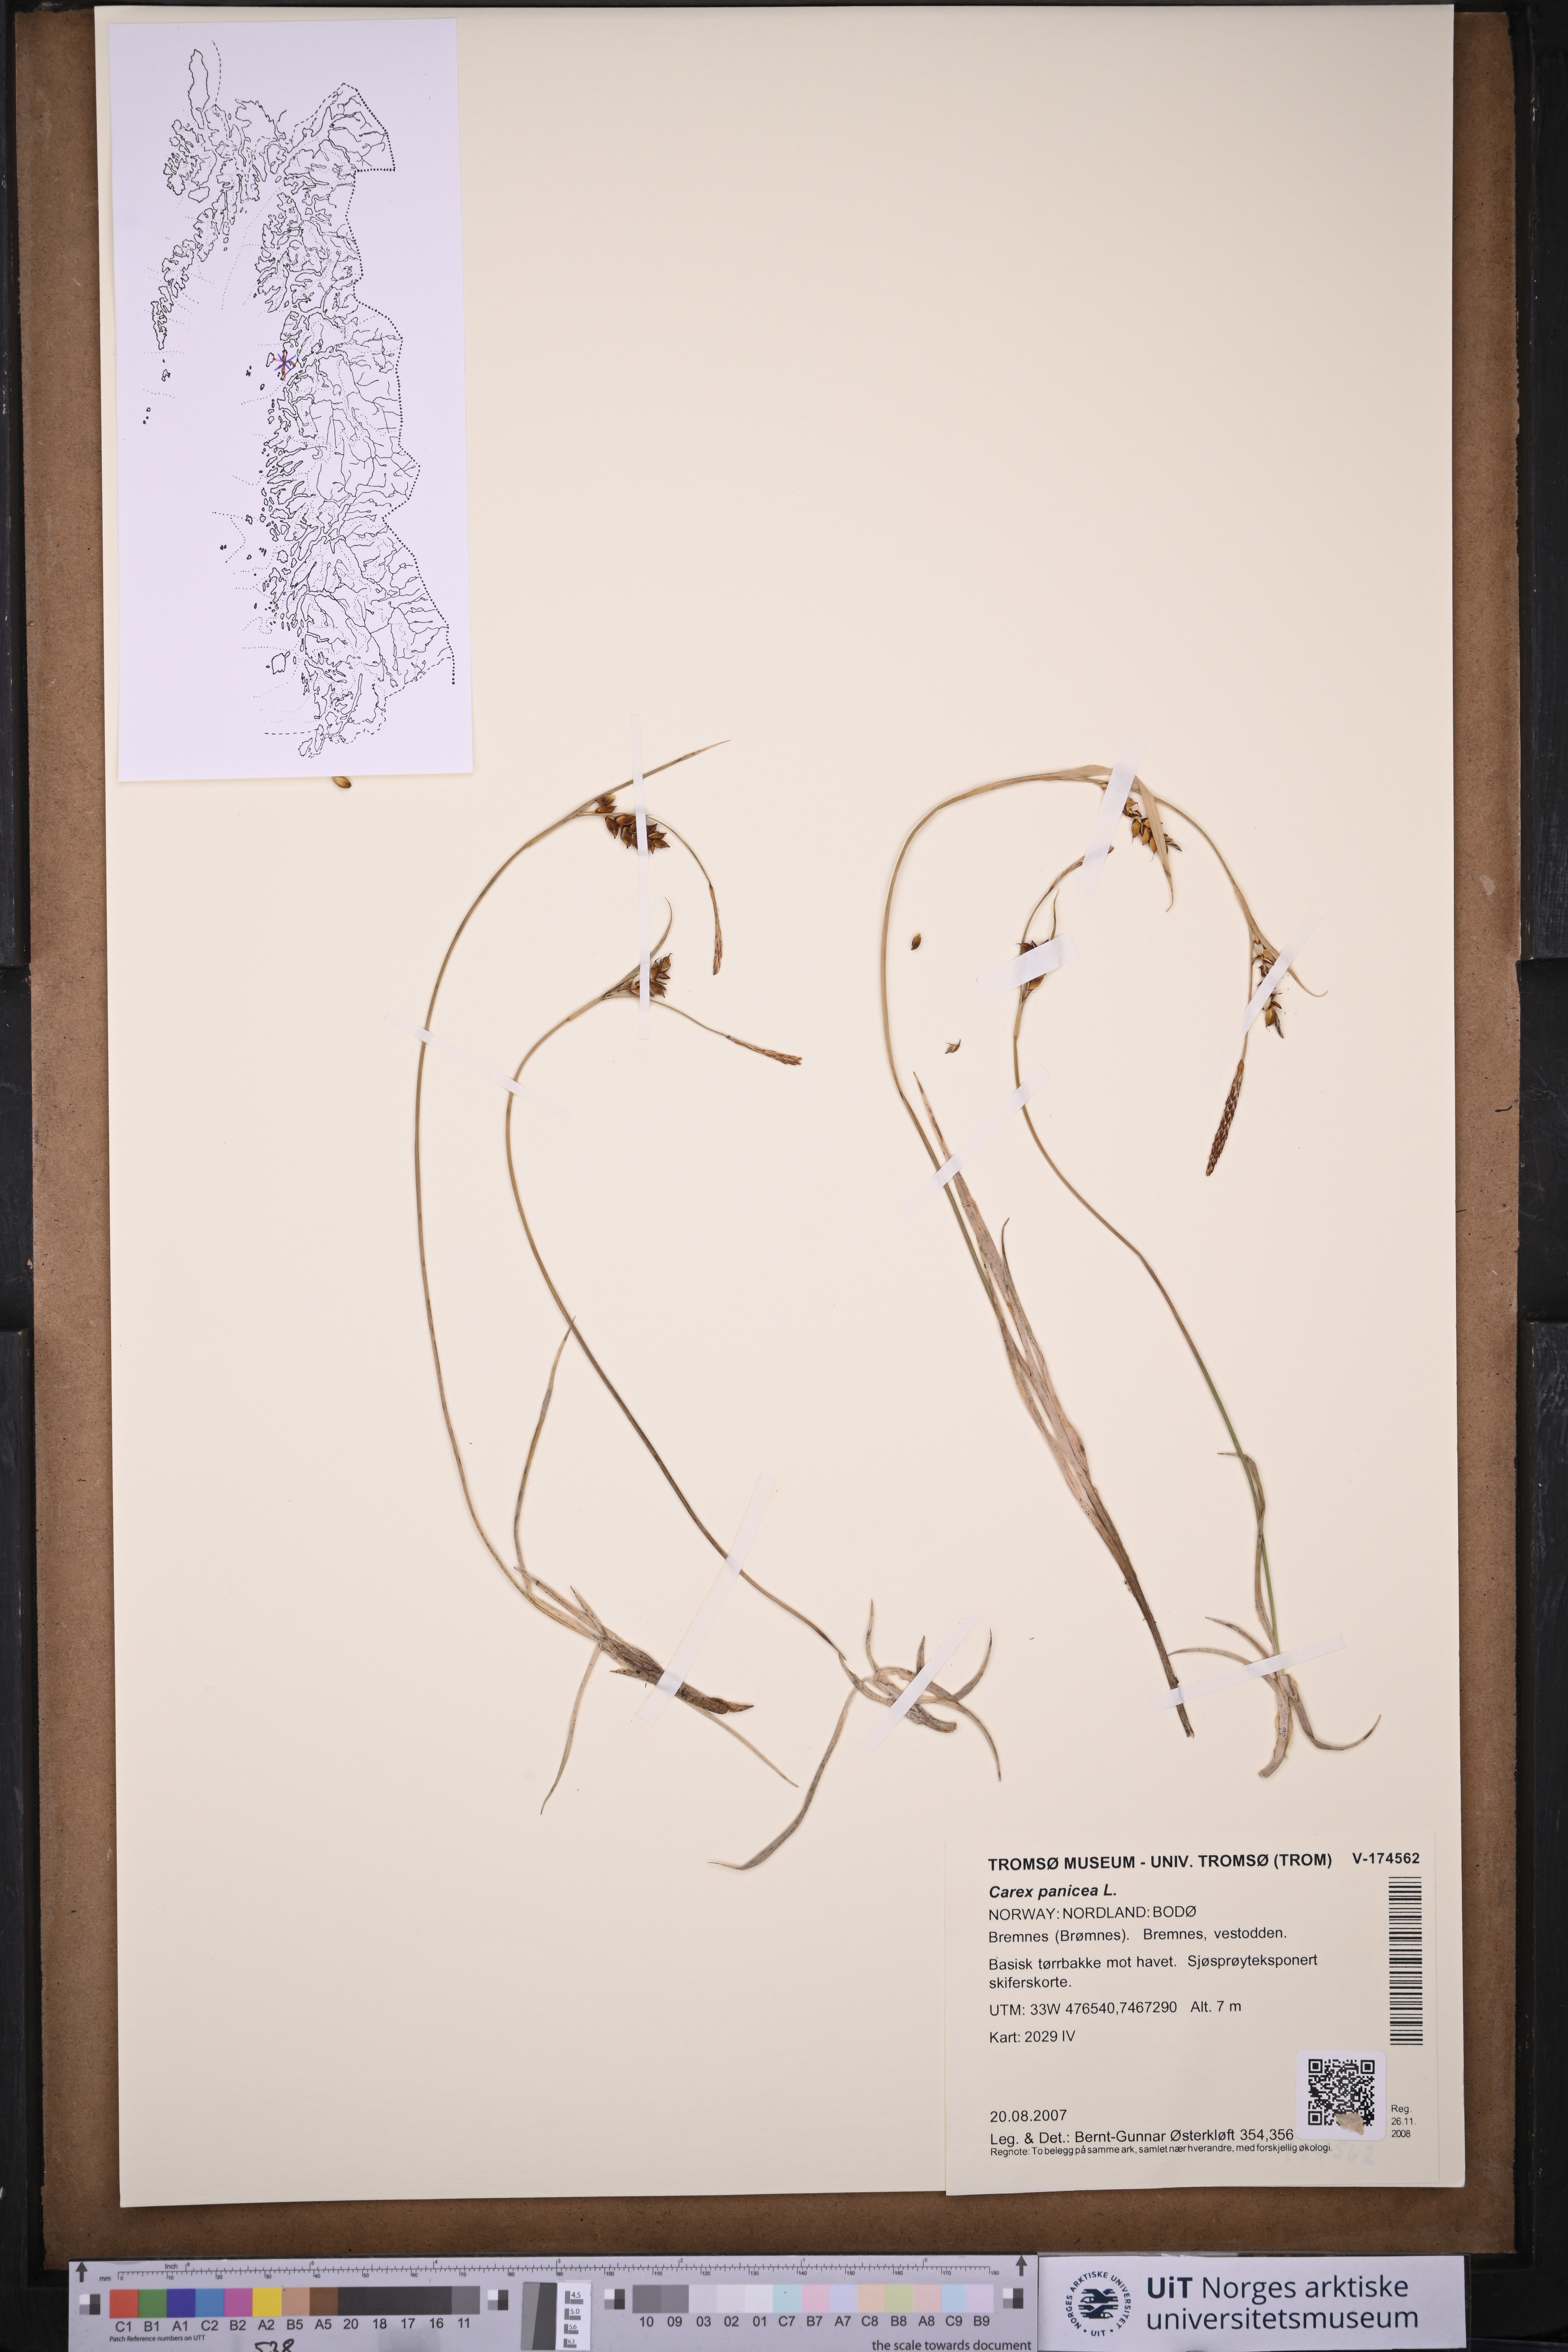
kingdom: Plantae
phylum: Tracheophyta
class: Liliopsida
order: Poales
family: Cyperaceae
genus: Carex
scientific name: Carex panicea
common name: Carnation sedge
